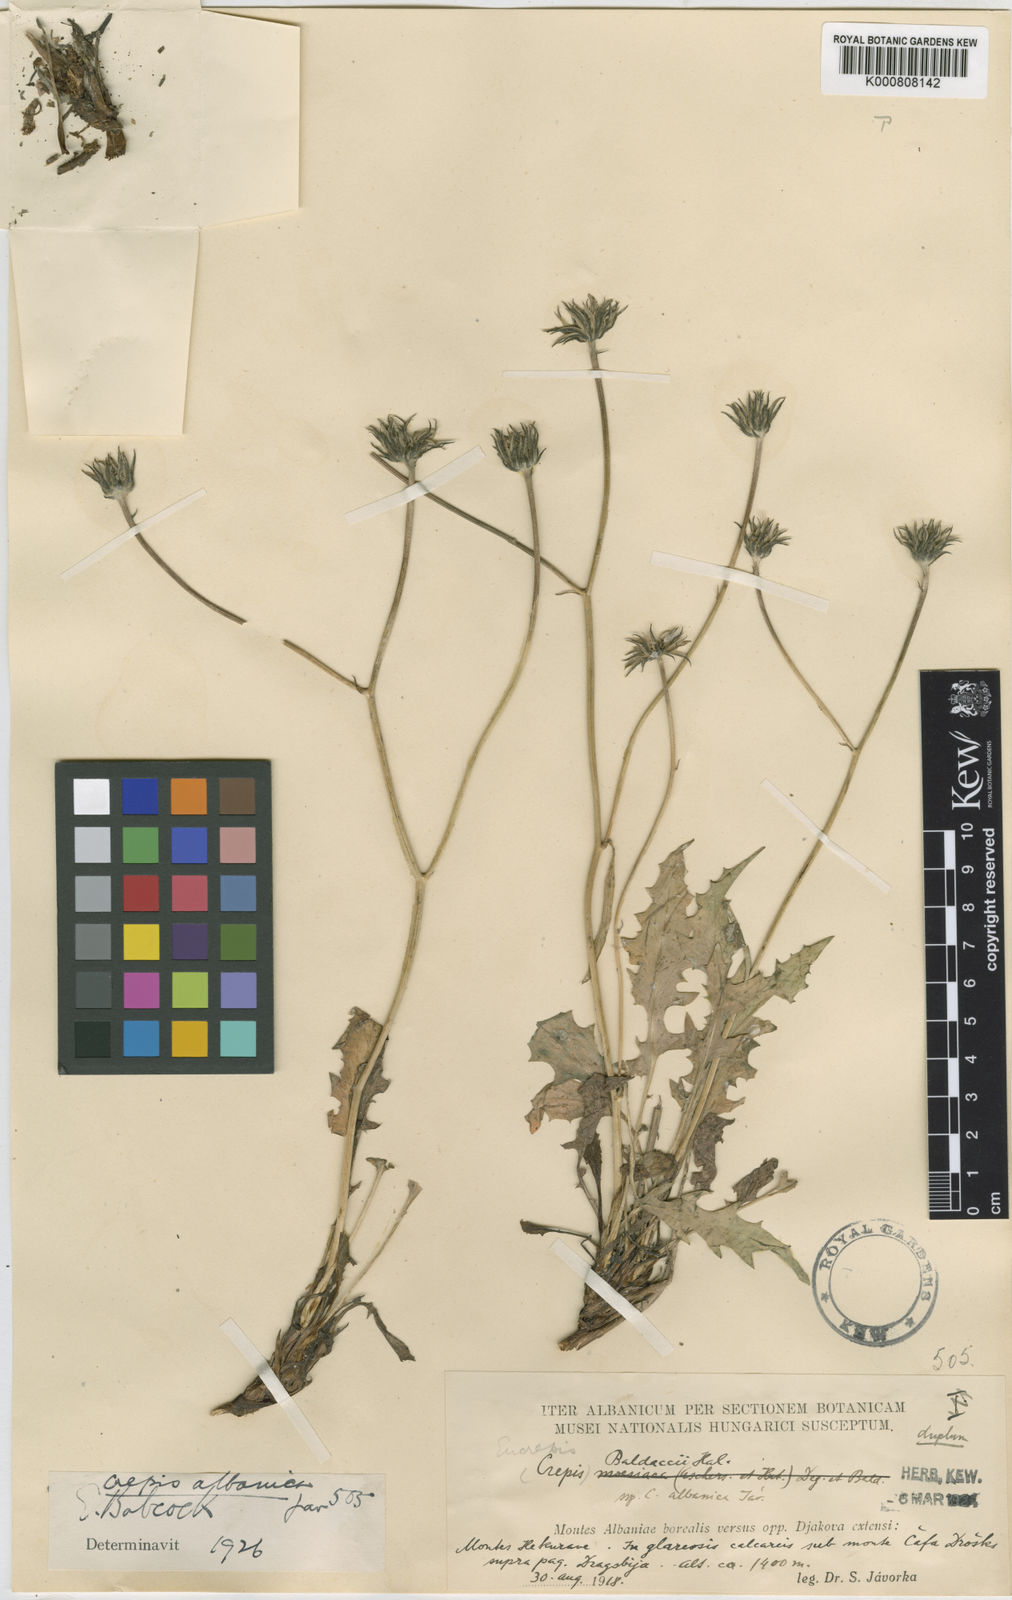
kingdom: Plantae
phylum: Tracheophyta
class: Magnoliopsida
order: Asterales
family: Asteraceae
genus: Crepis
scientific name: Crepis baldaccii
